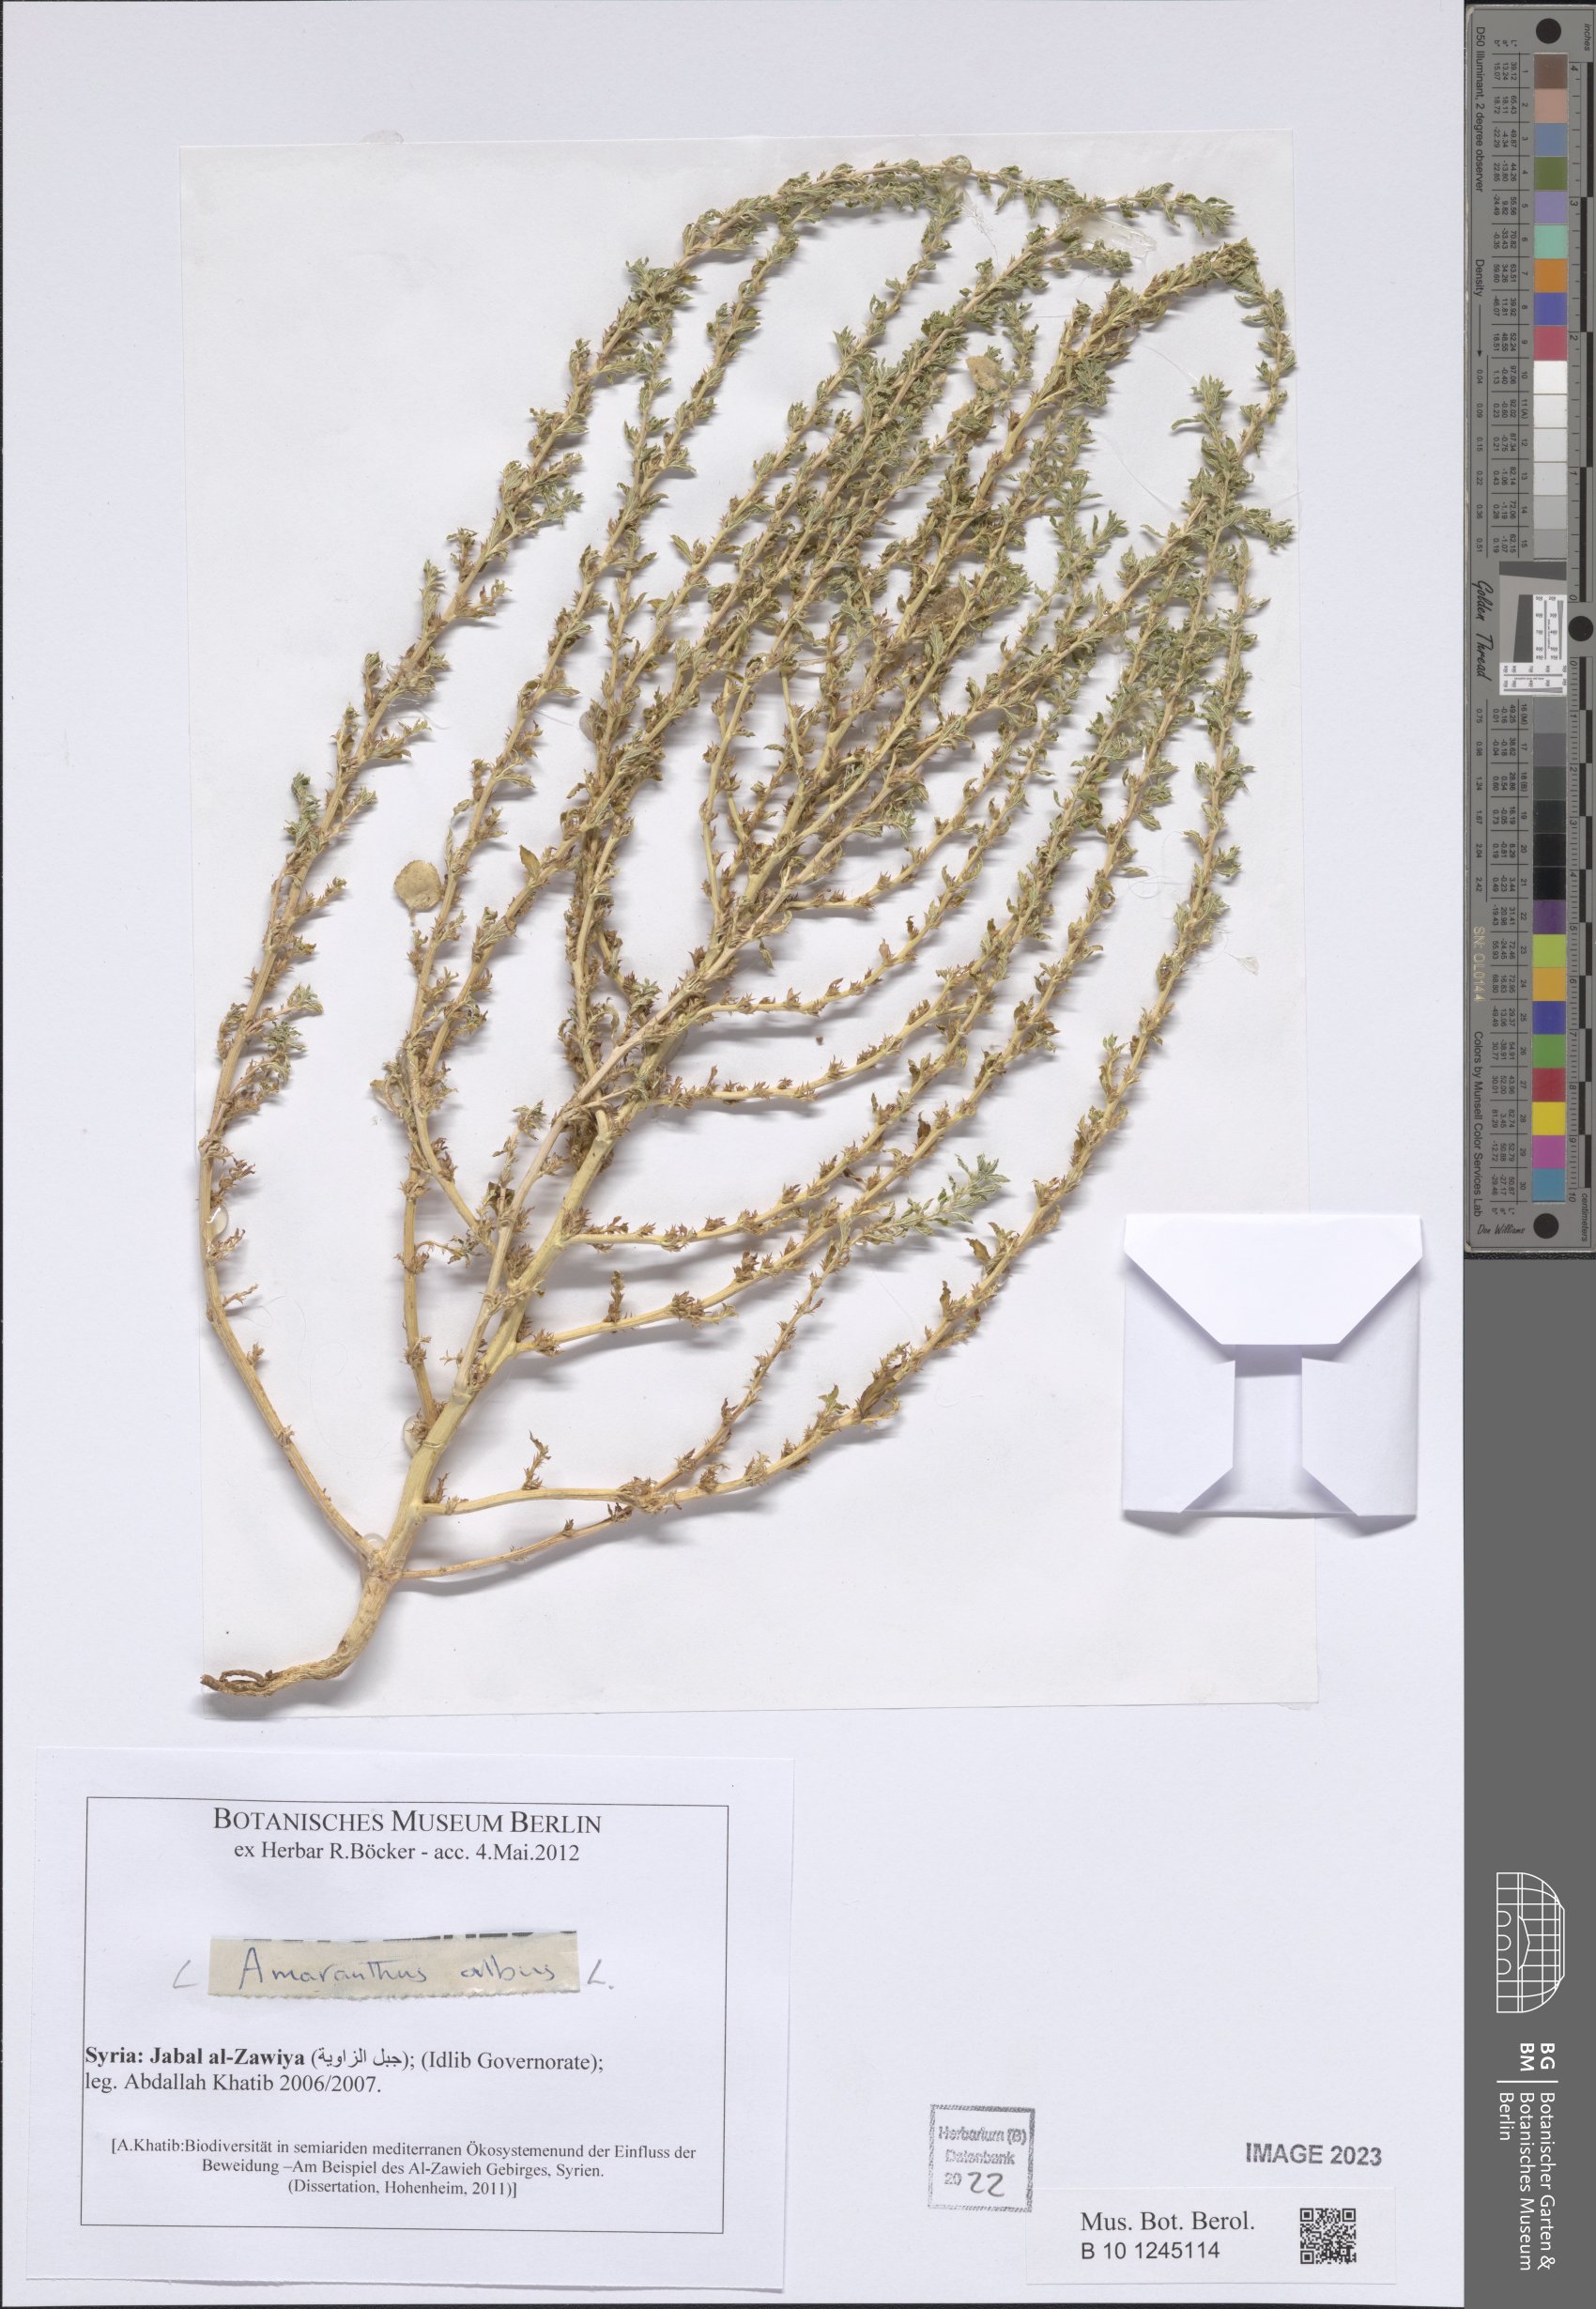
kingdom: Plantae
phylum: Tracheophyta
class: Magnoliopsida
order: Caryophyllales
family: Amaranthaceae
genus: Amaranthus
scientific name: Amaranthus albus
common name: White pigweed
